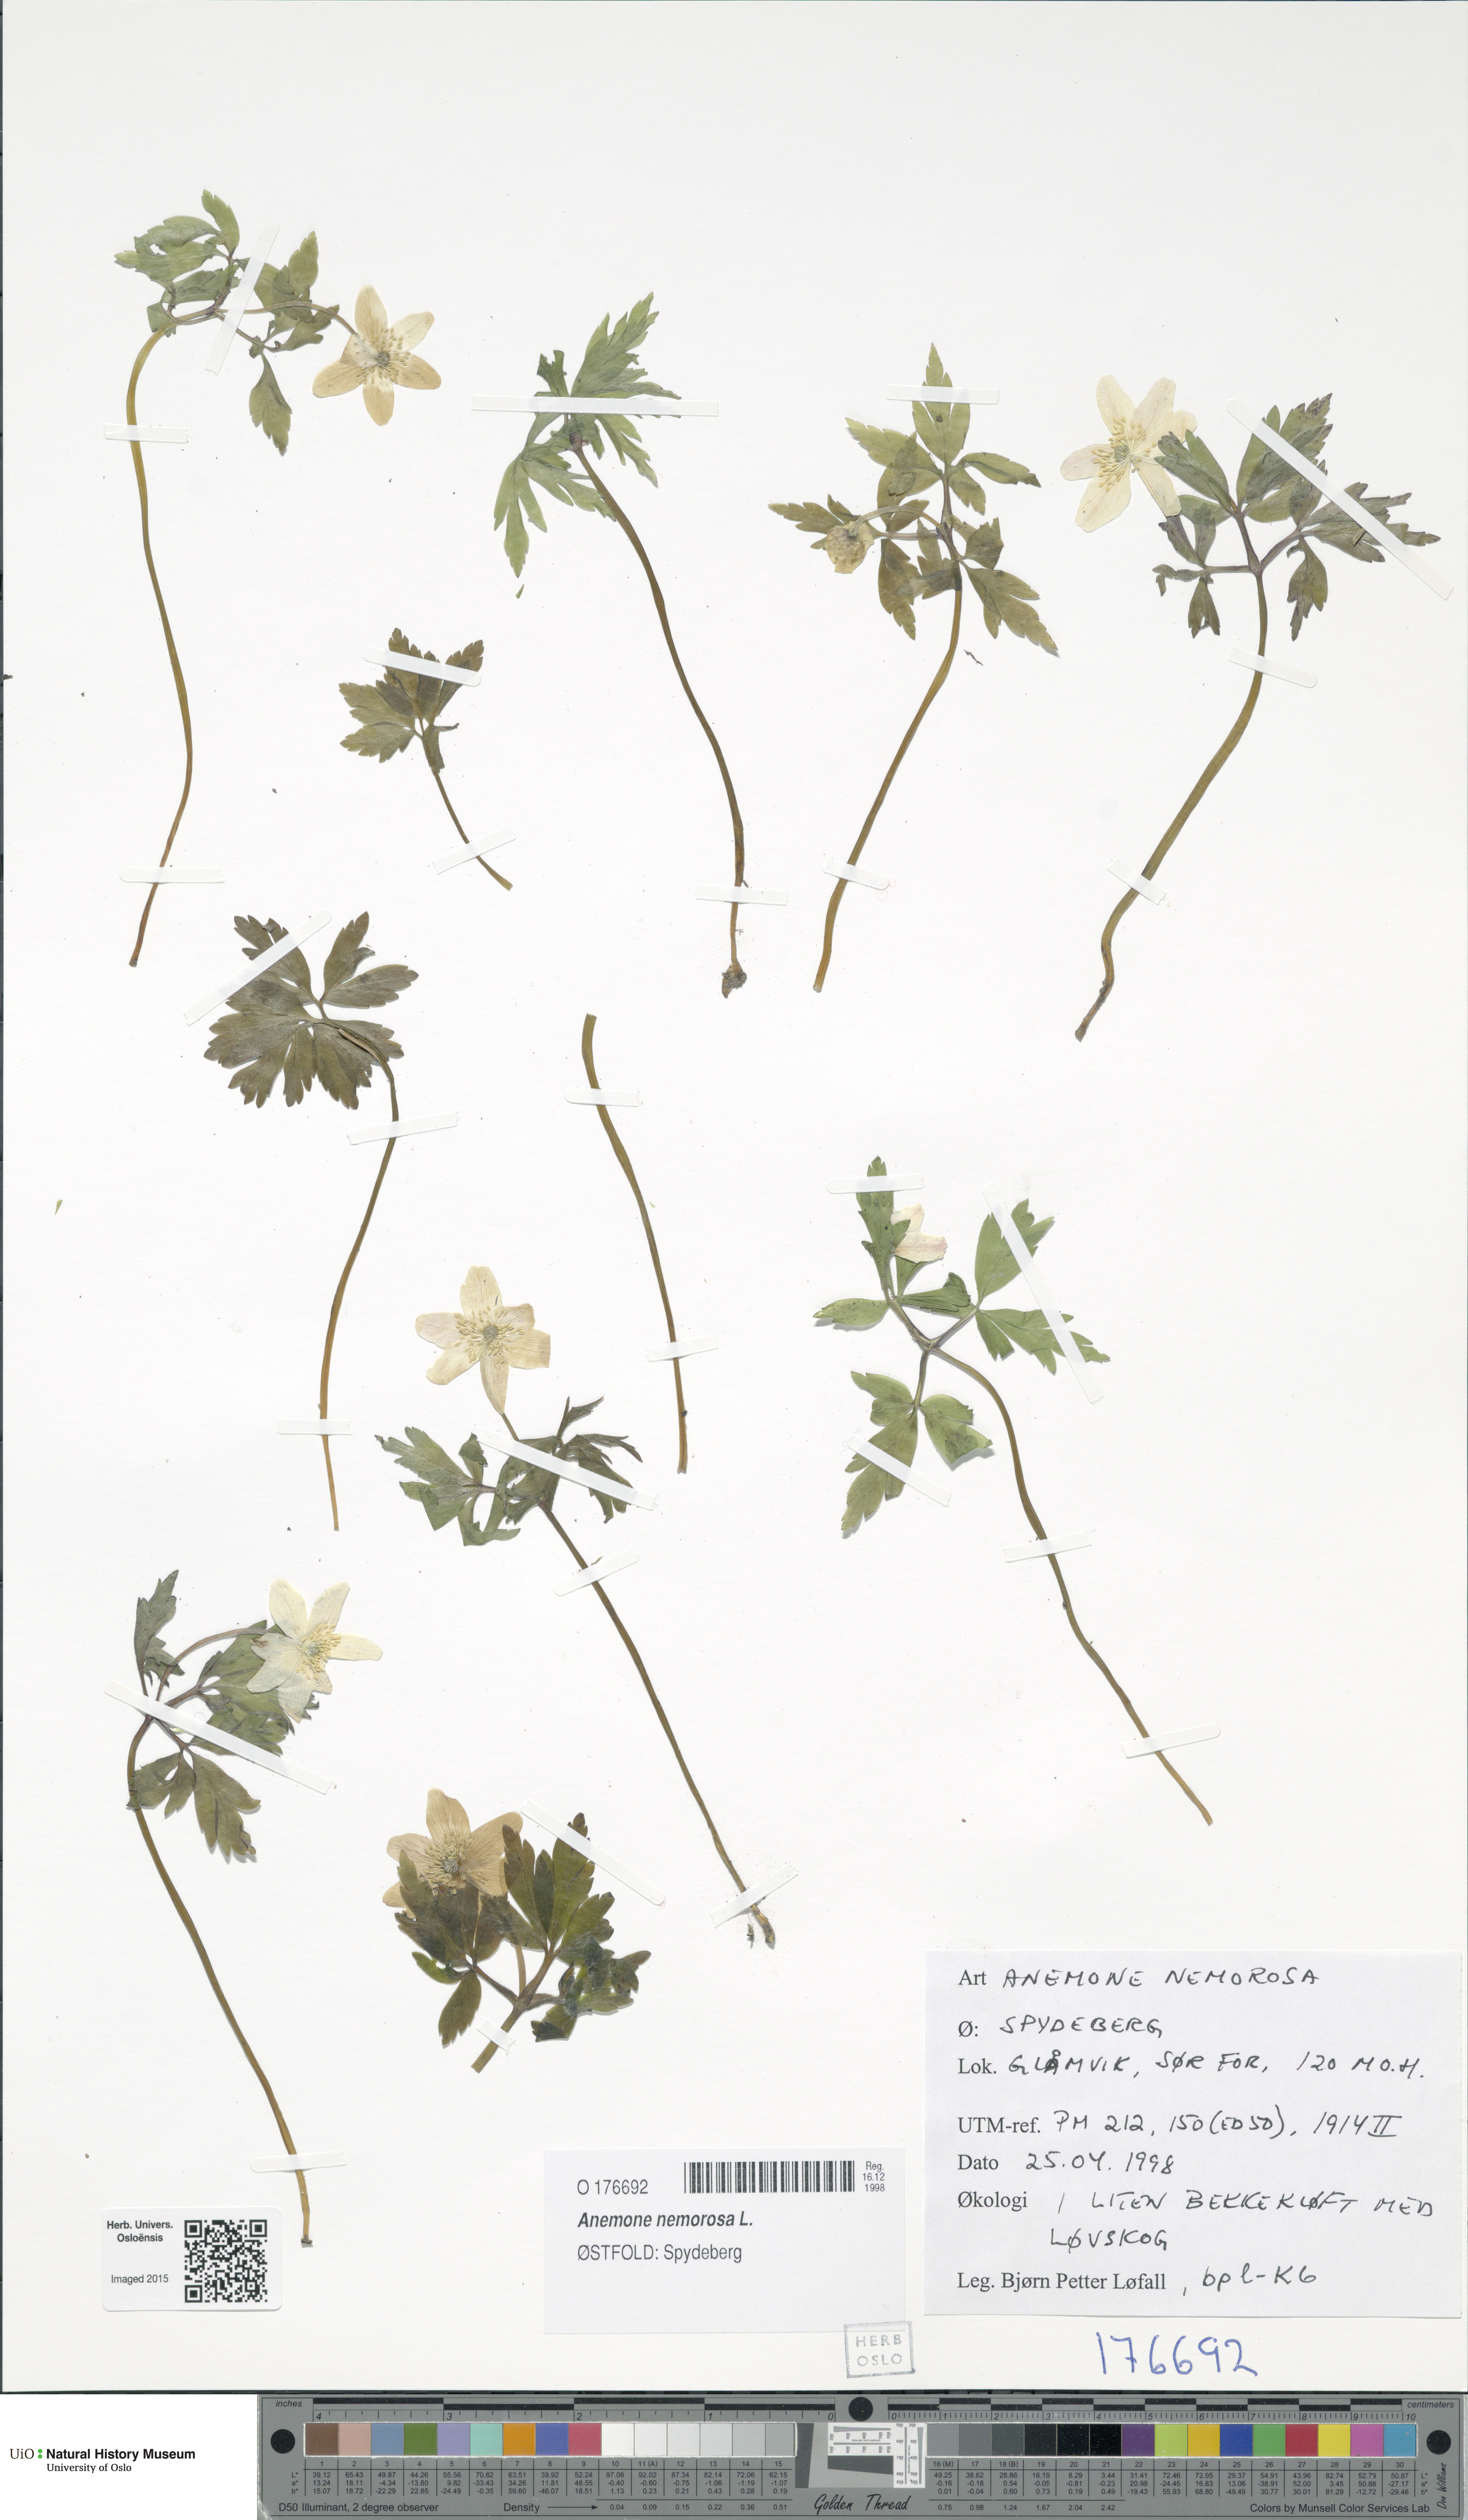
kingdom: Plantae
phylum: Tracheophyta
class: Magnoliopsida
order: Ranunculales
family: Ranunculaceae
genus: Anemone
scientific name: Anemone nemorosa
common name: Wood anemone
